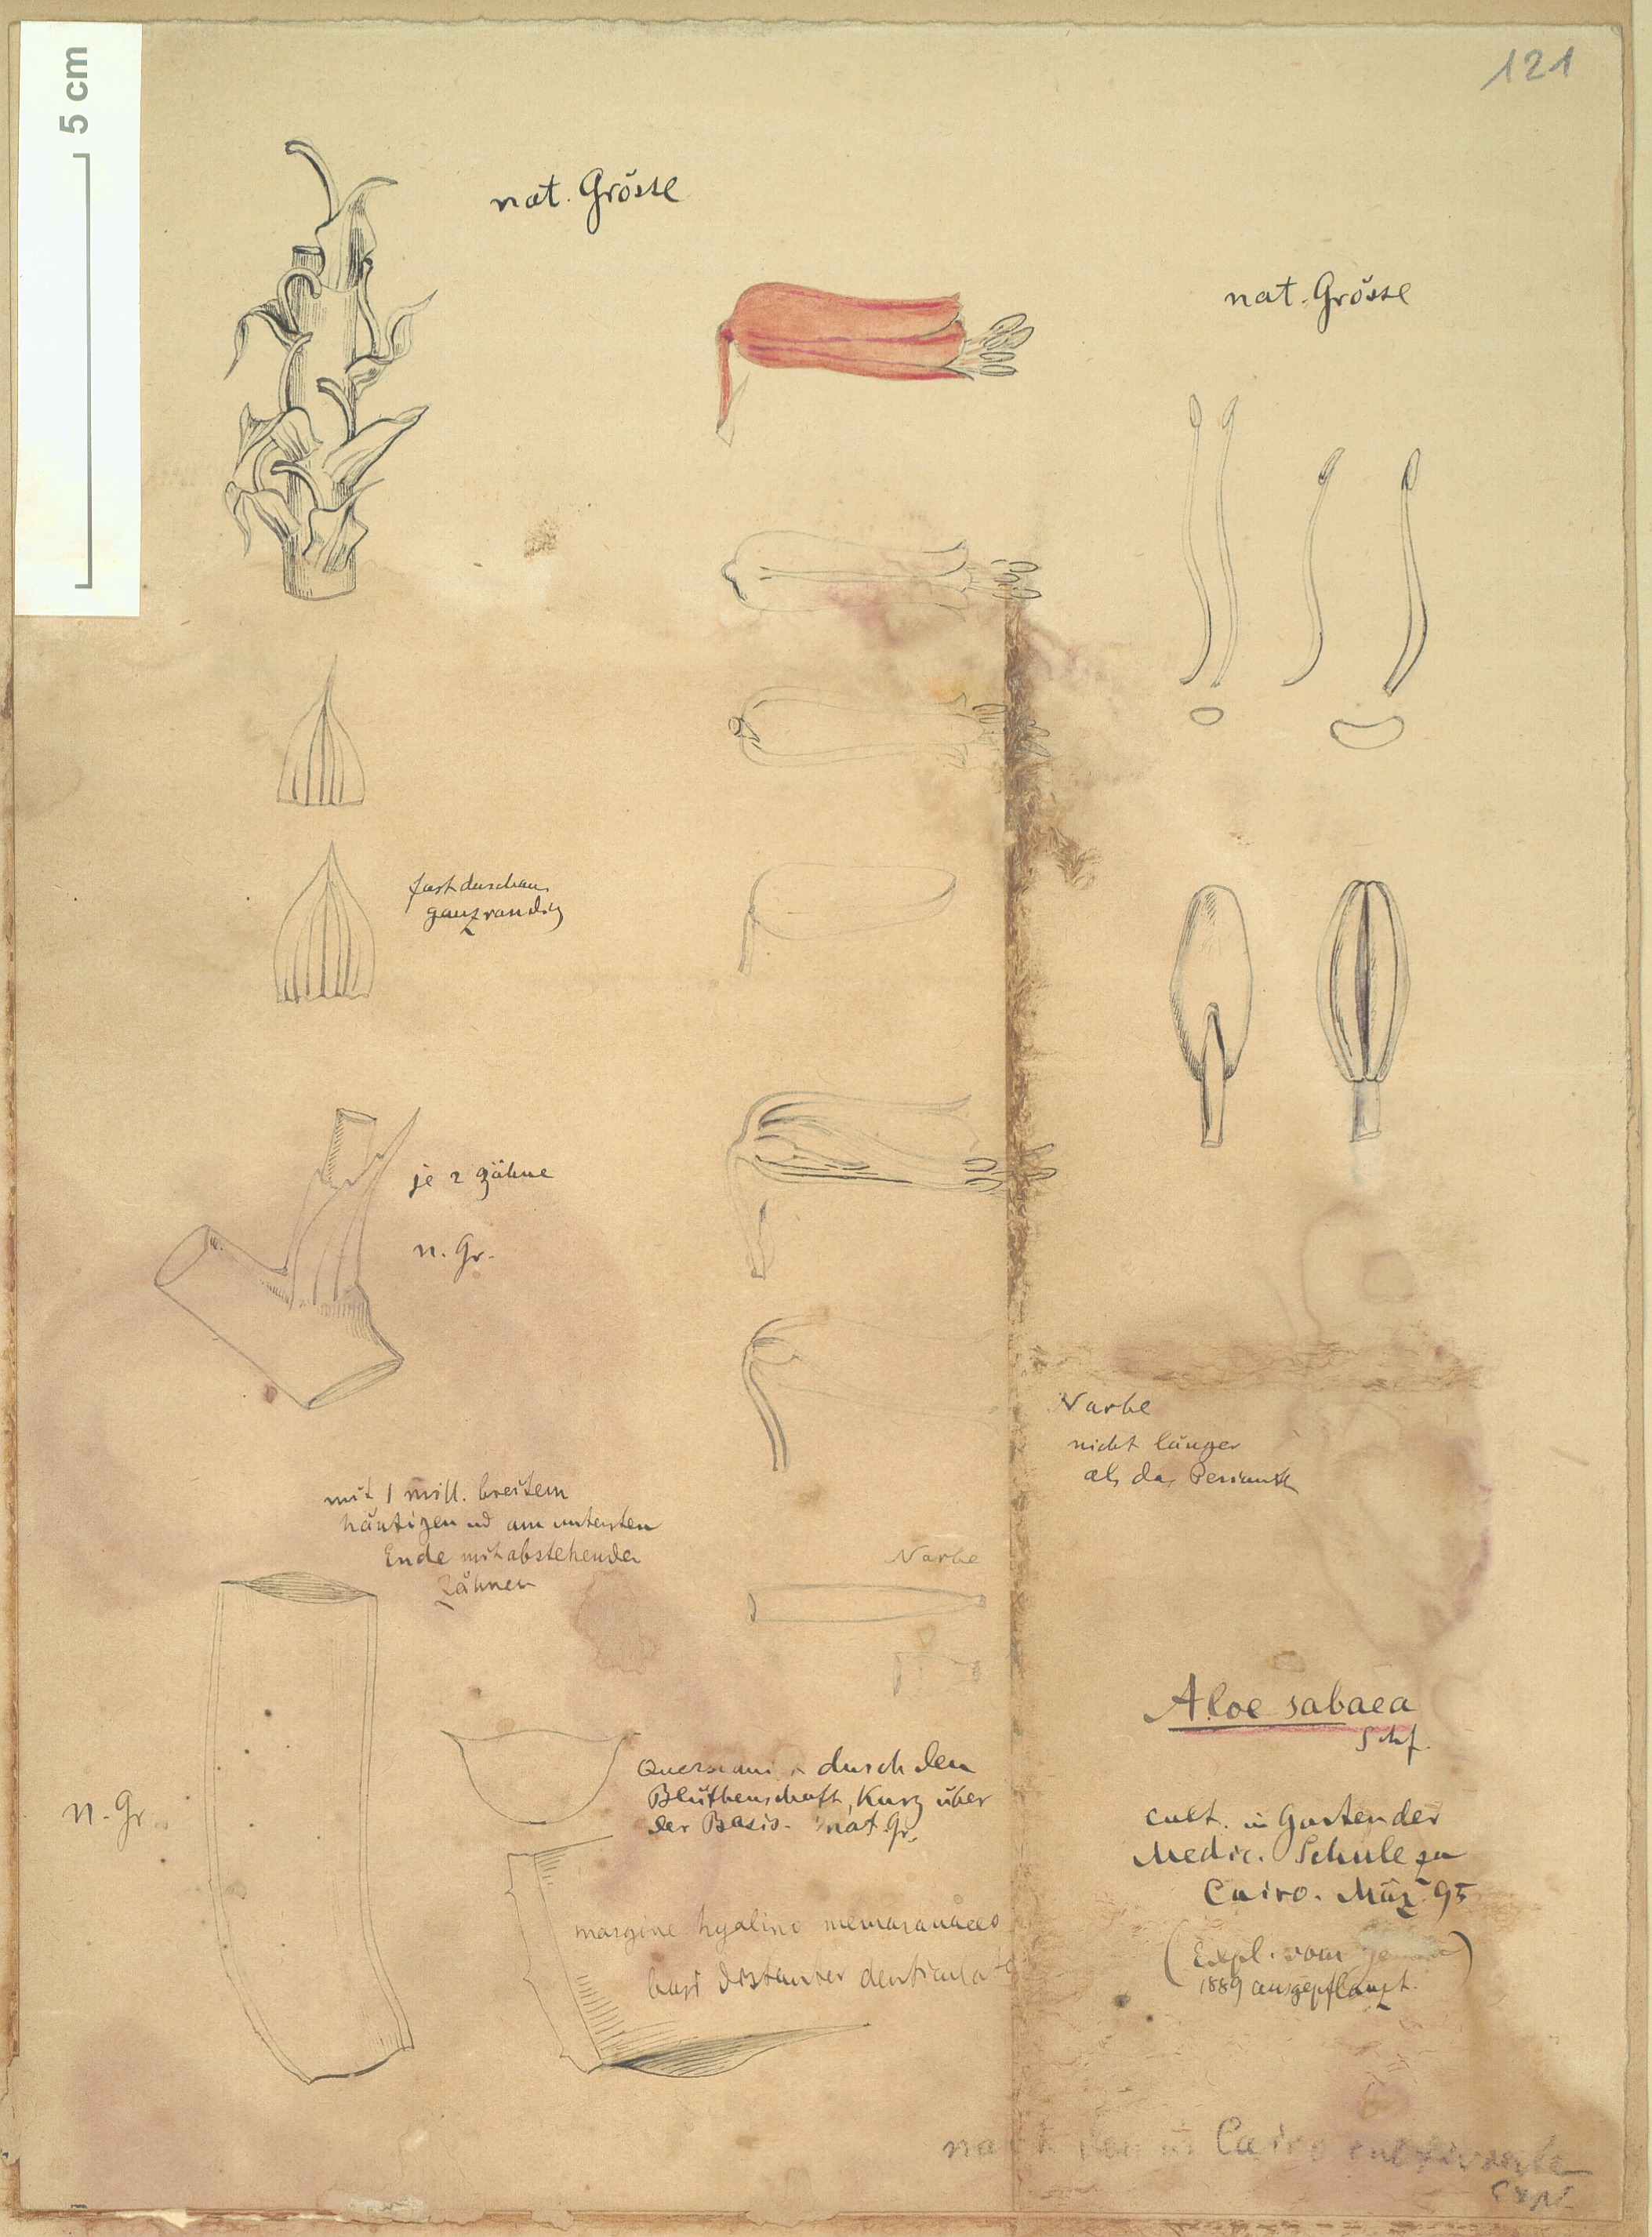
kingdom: Plantae
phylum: Tracheophyta
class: Liliopsida
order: Asparagales
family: Asphodelaceae
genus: Aloidendron
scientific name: Aloidendron sabaeum
